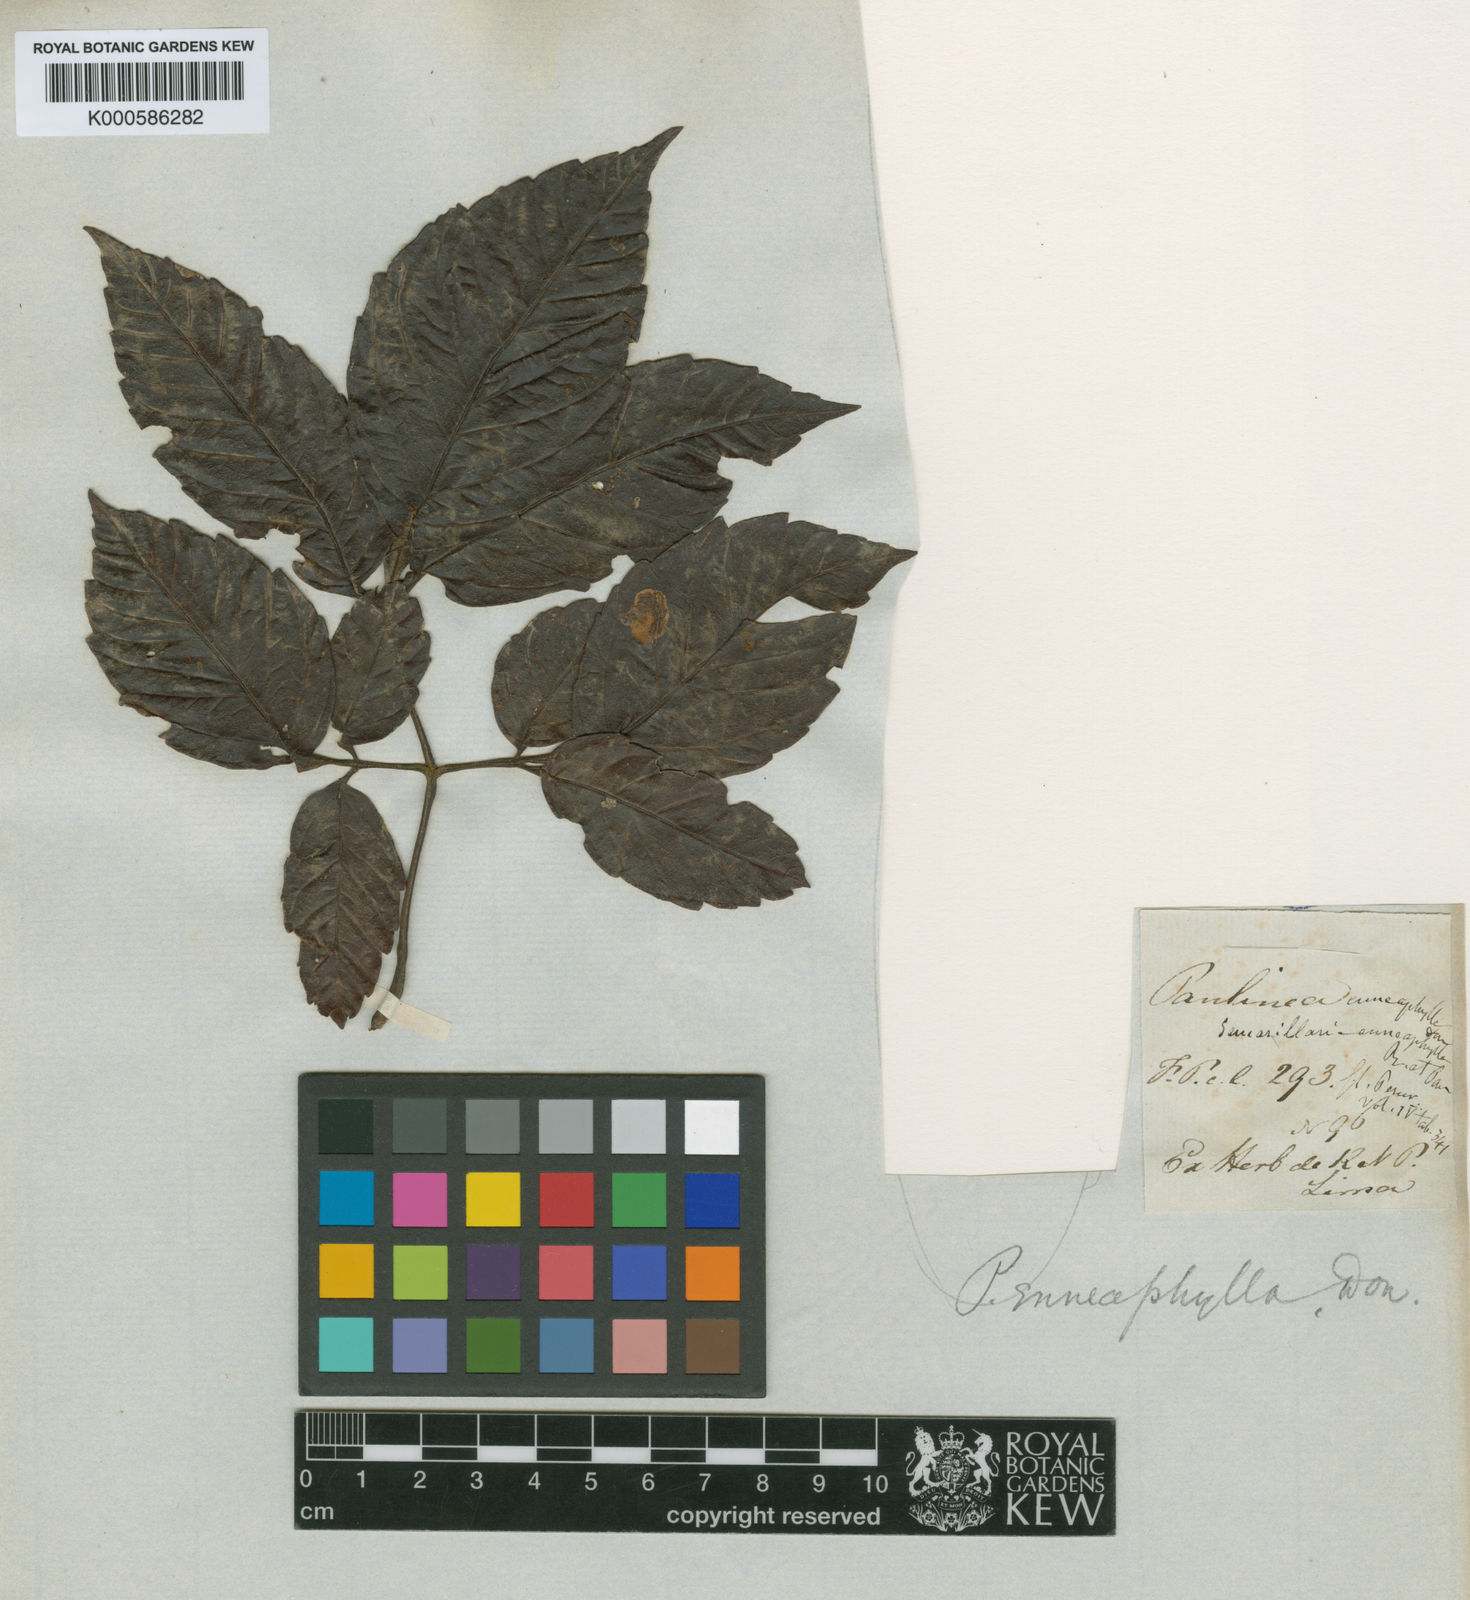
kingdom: Plantae
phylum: Tracheophyta
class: Magnoliopsida
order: Sapindales
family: Sapindaceae
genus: Paullinia
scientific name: Paullinia enneaphylla
